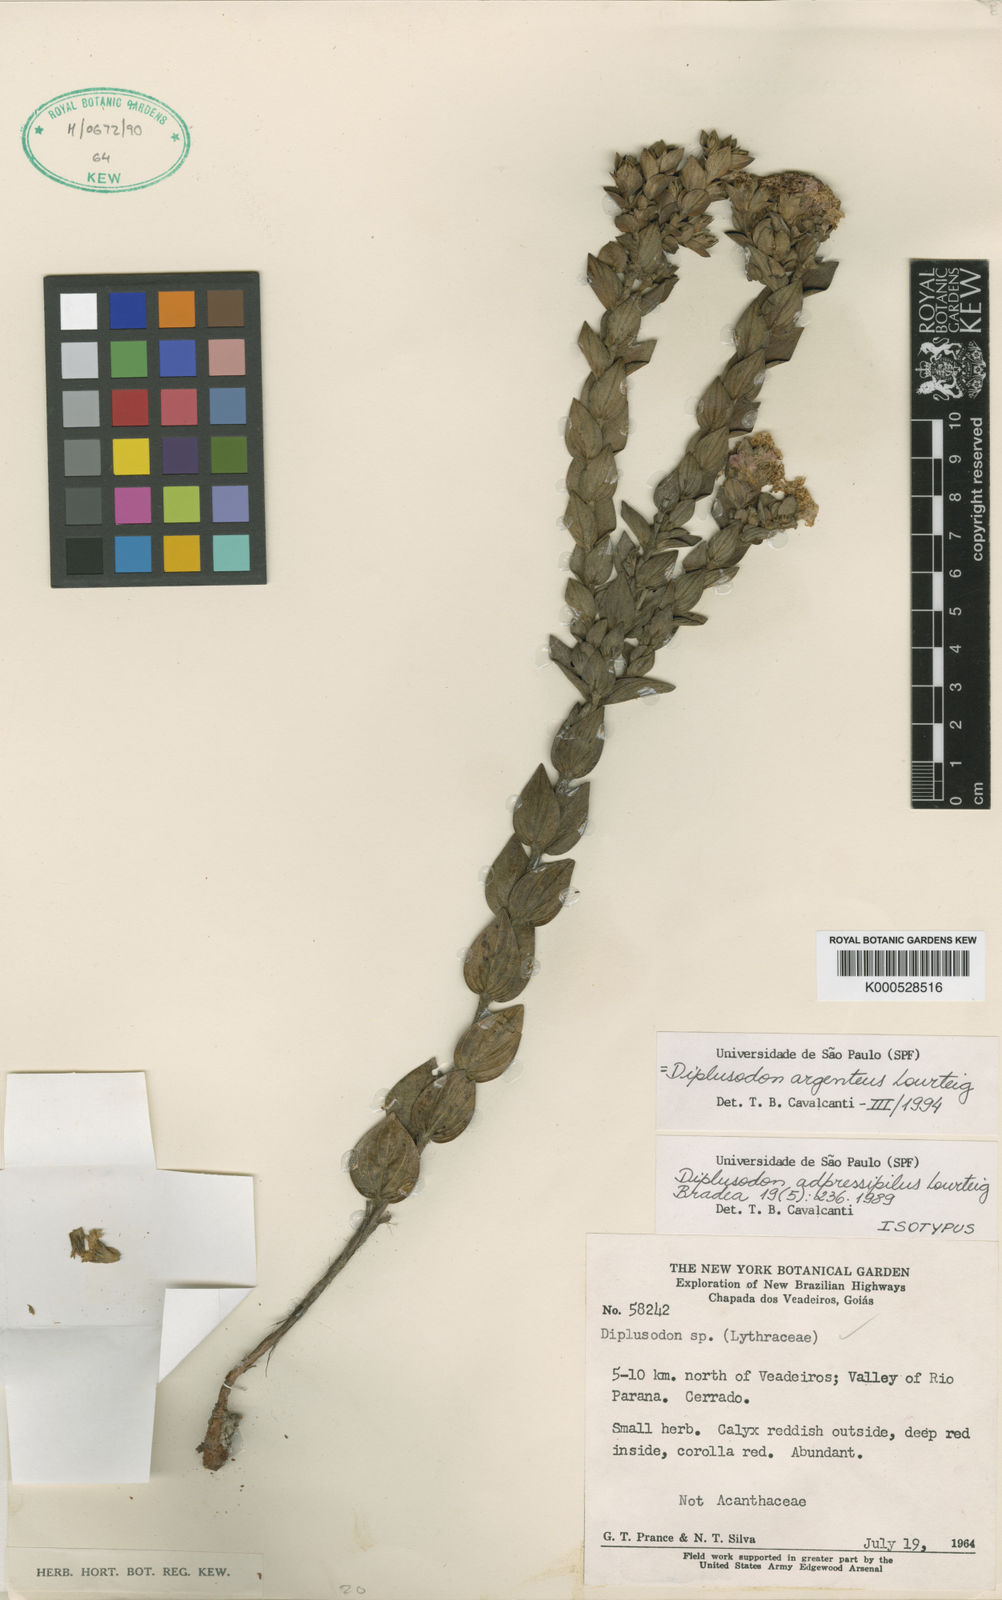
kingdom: Plantae
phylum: Tracheophyta
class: Magnoliopsida
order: Myrtales
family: Lythraceae
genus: Diplusodon
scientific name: Diplusodon argenteus
